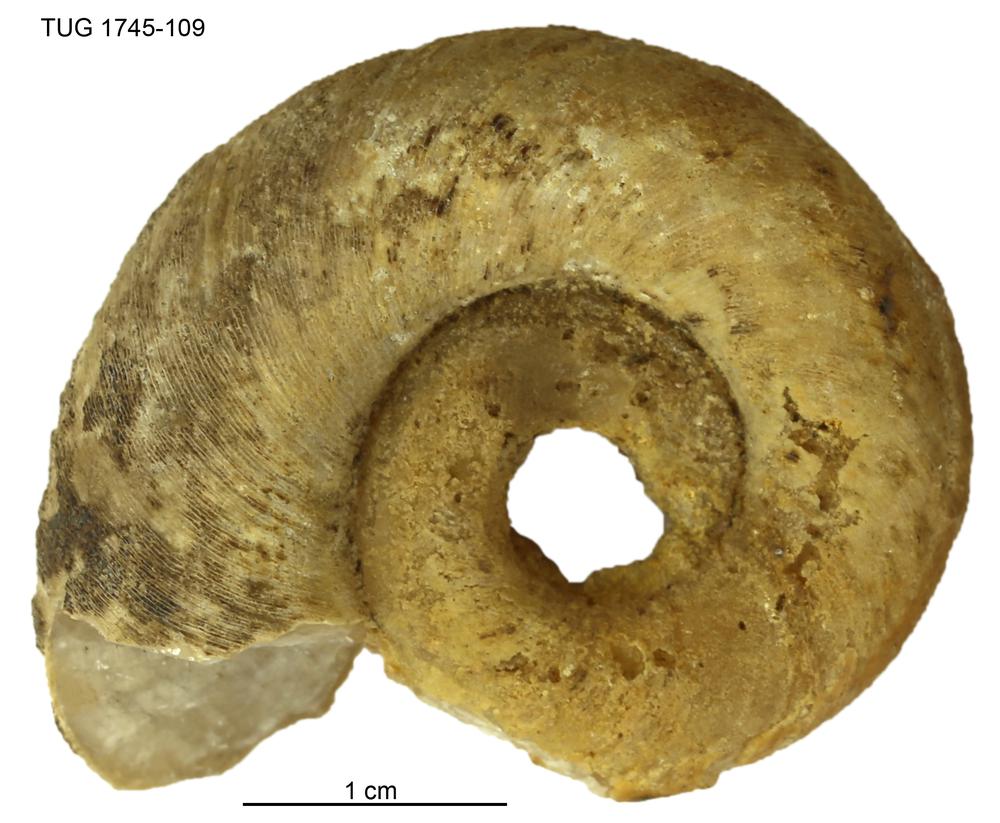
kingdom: Animalia
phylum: Mollusca
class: Cephalopoda
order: Orthocerida
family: Orthoceratidae
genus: Orthoceras
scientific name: Orthoceras
